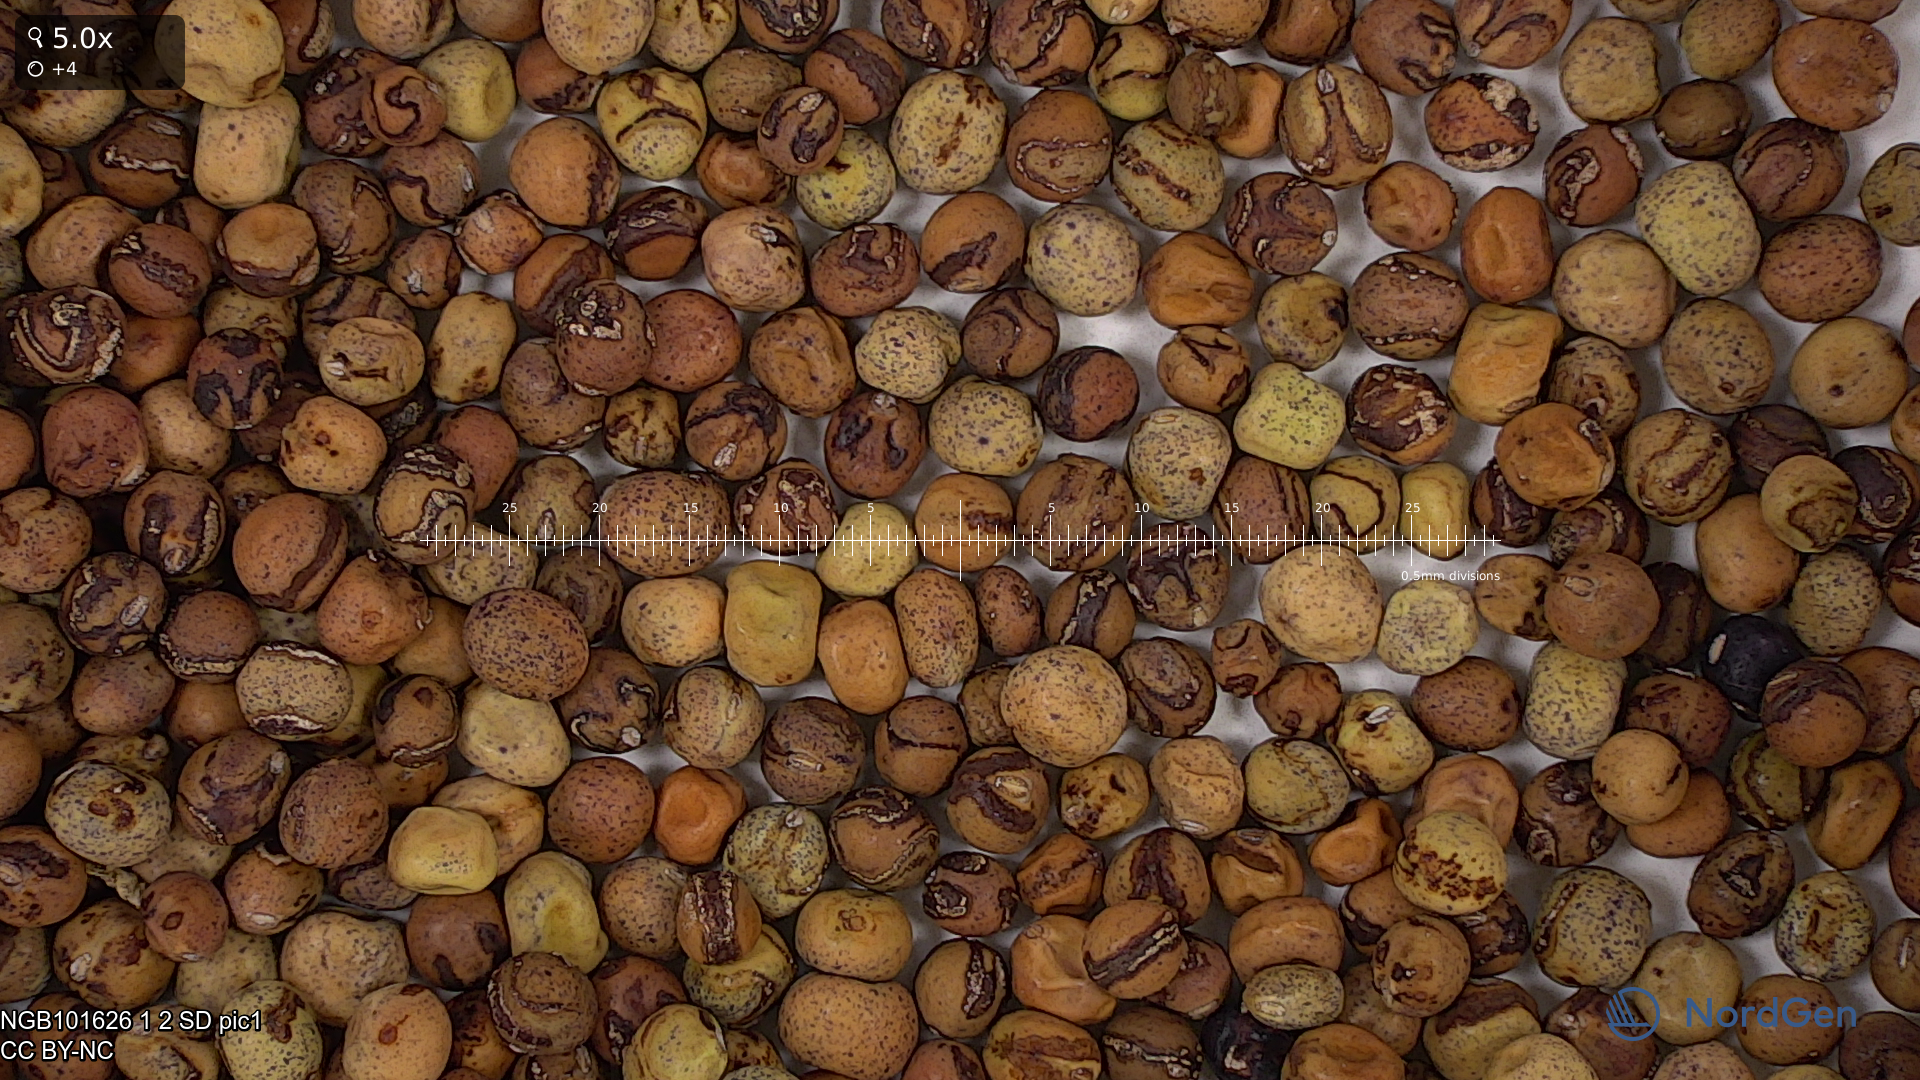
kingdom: Plantae
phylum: Tracheophyta
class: Magnoliopsida
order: Fabales
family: Fabaceae
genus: Lathyrus
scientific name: Lathyrus oleraceus
